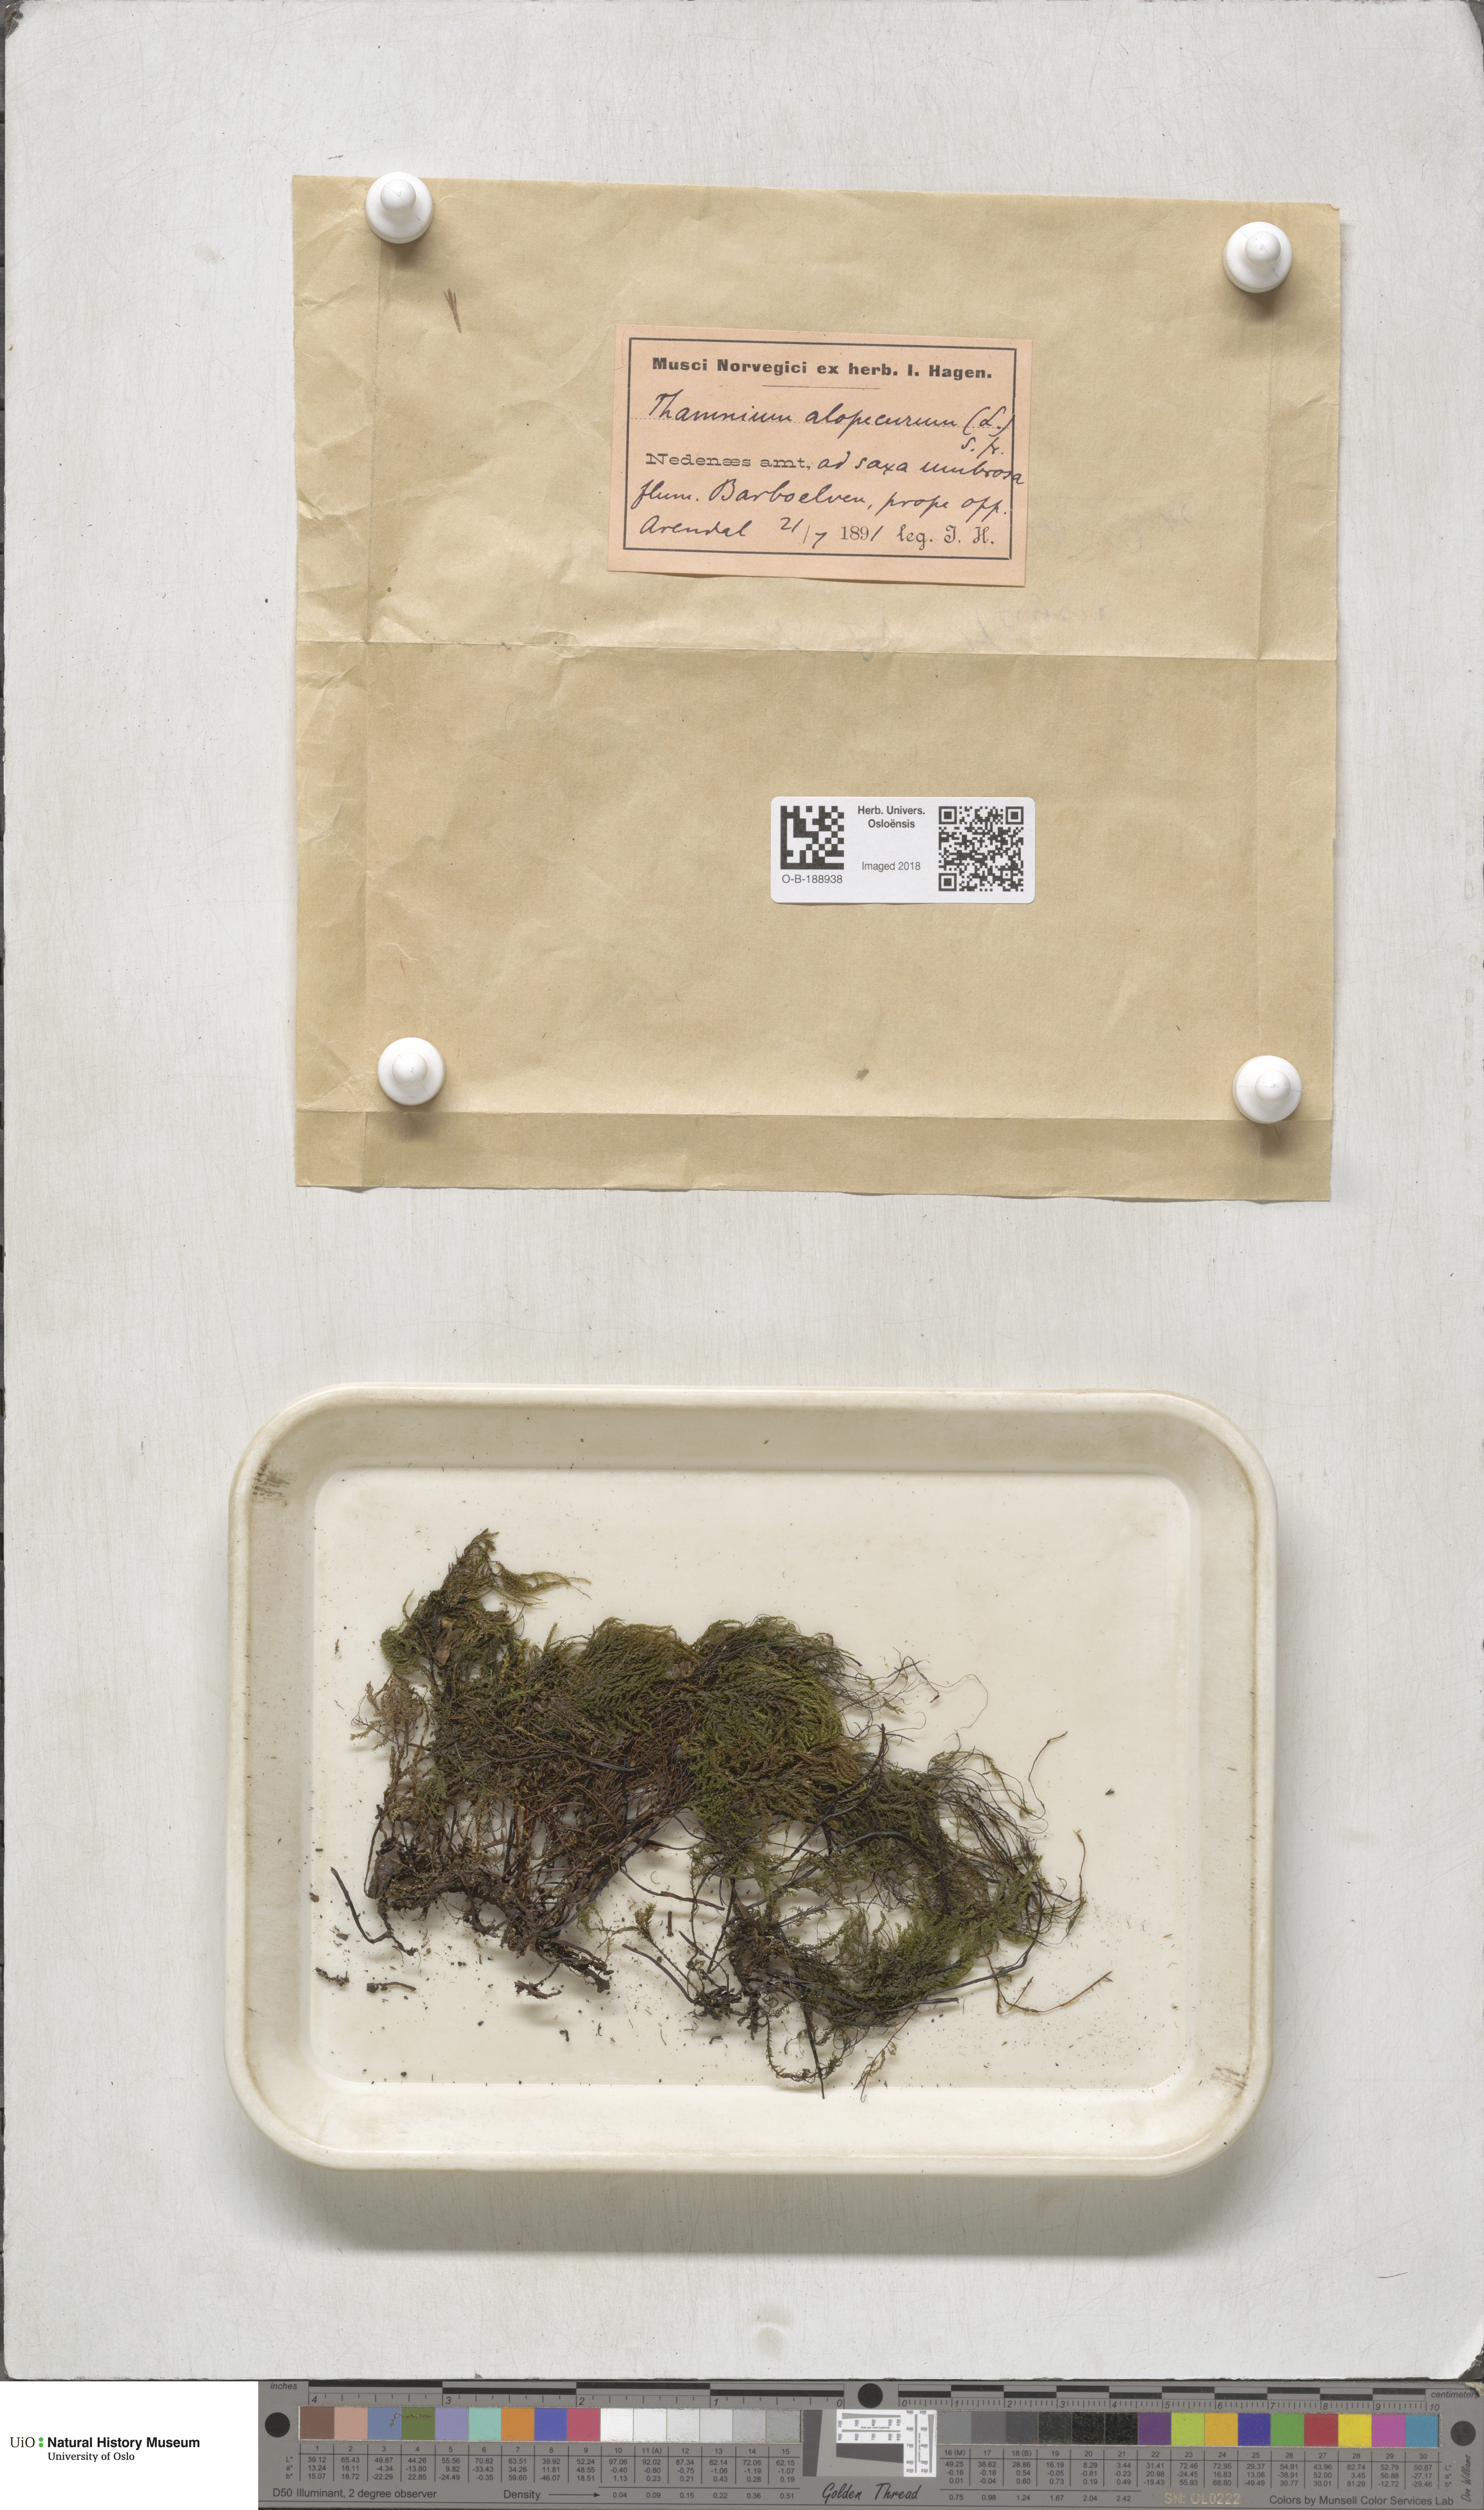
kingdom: Plantae
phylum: Bryophyta
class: Bryopsida
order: Hypnales
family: Neckeraceae
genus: Thamnobryum
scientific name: Thamnobryum alopecurum
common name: Fox-tail feather-moss
